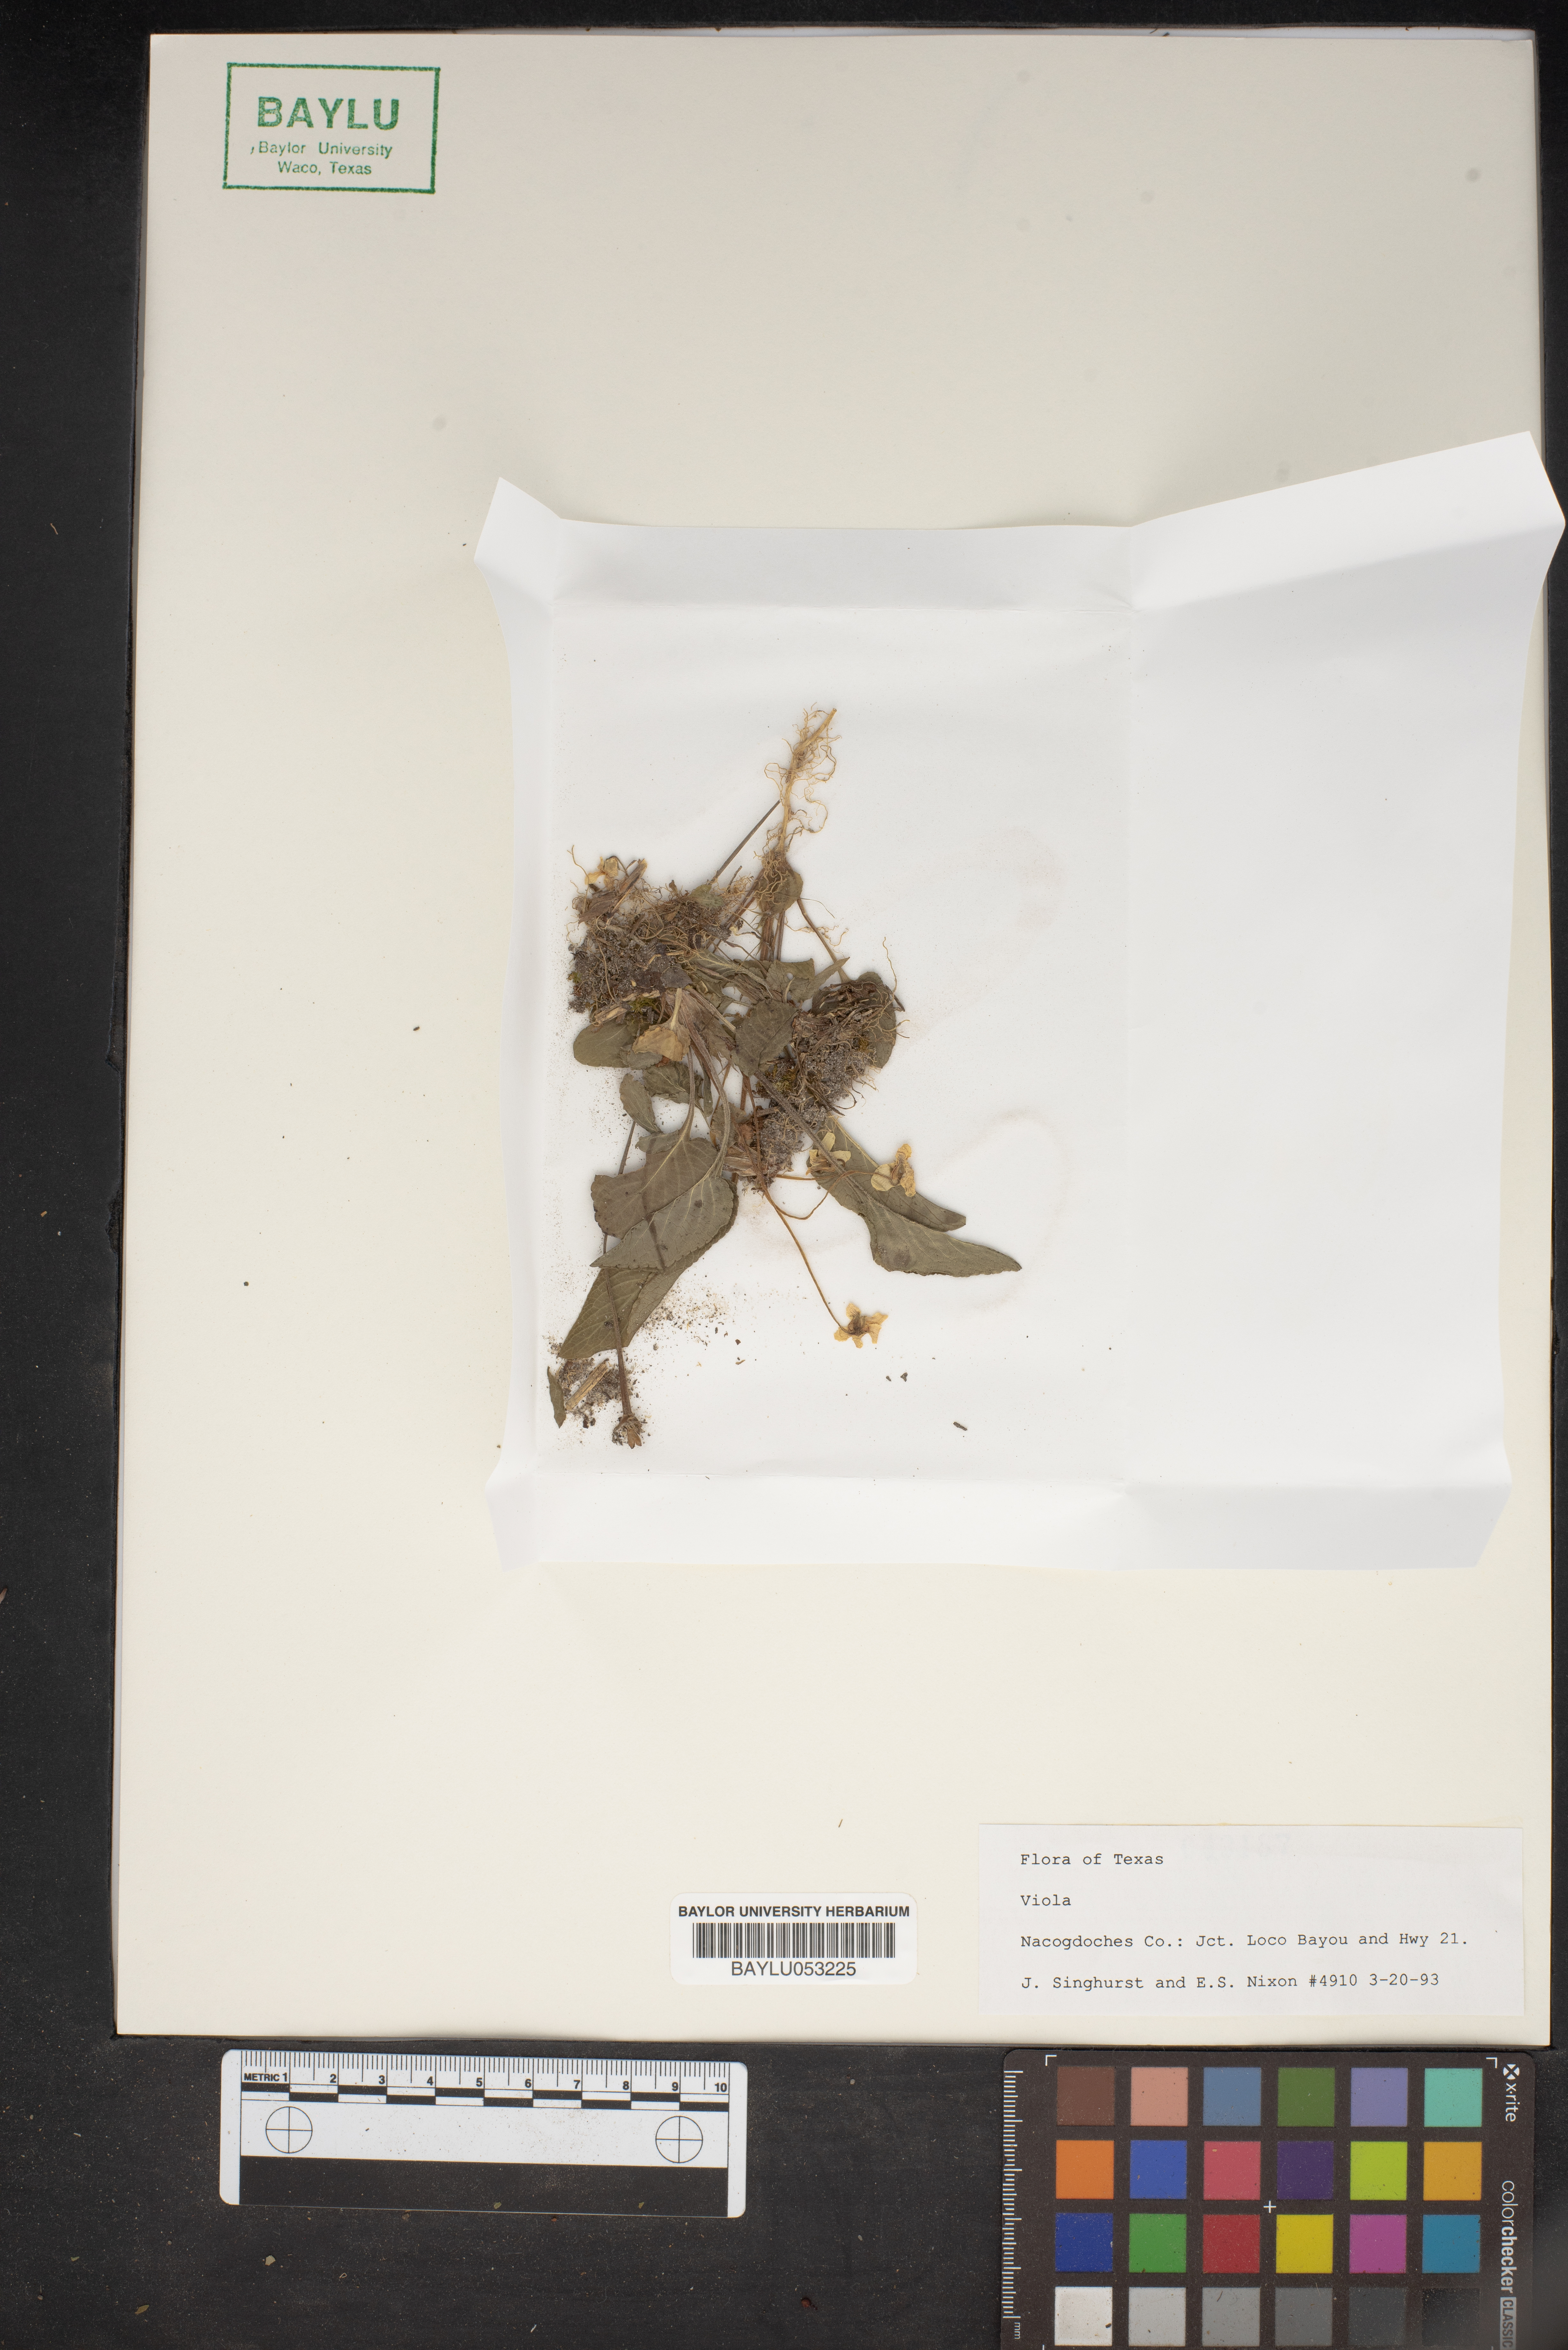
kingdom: Plantae
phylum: Tracheophyta
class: Magnoliopsida
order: Malpighiales
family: Violaceae
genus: Viola
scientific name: Viola
